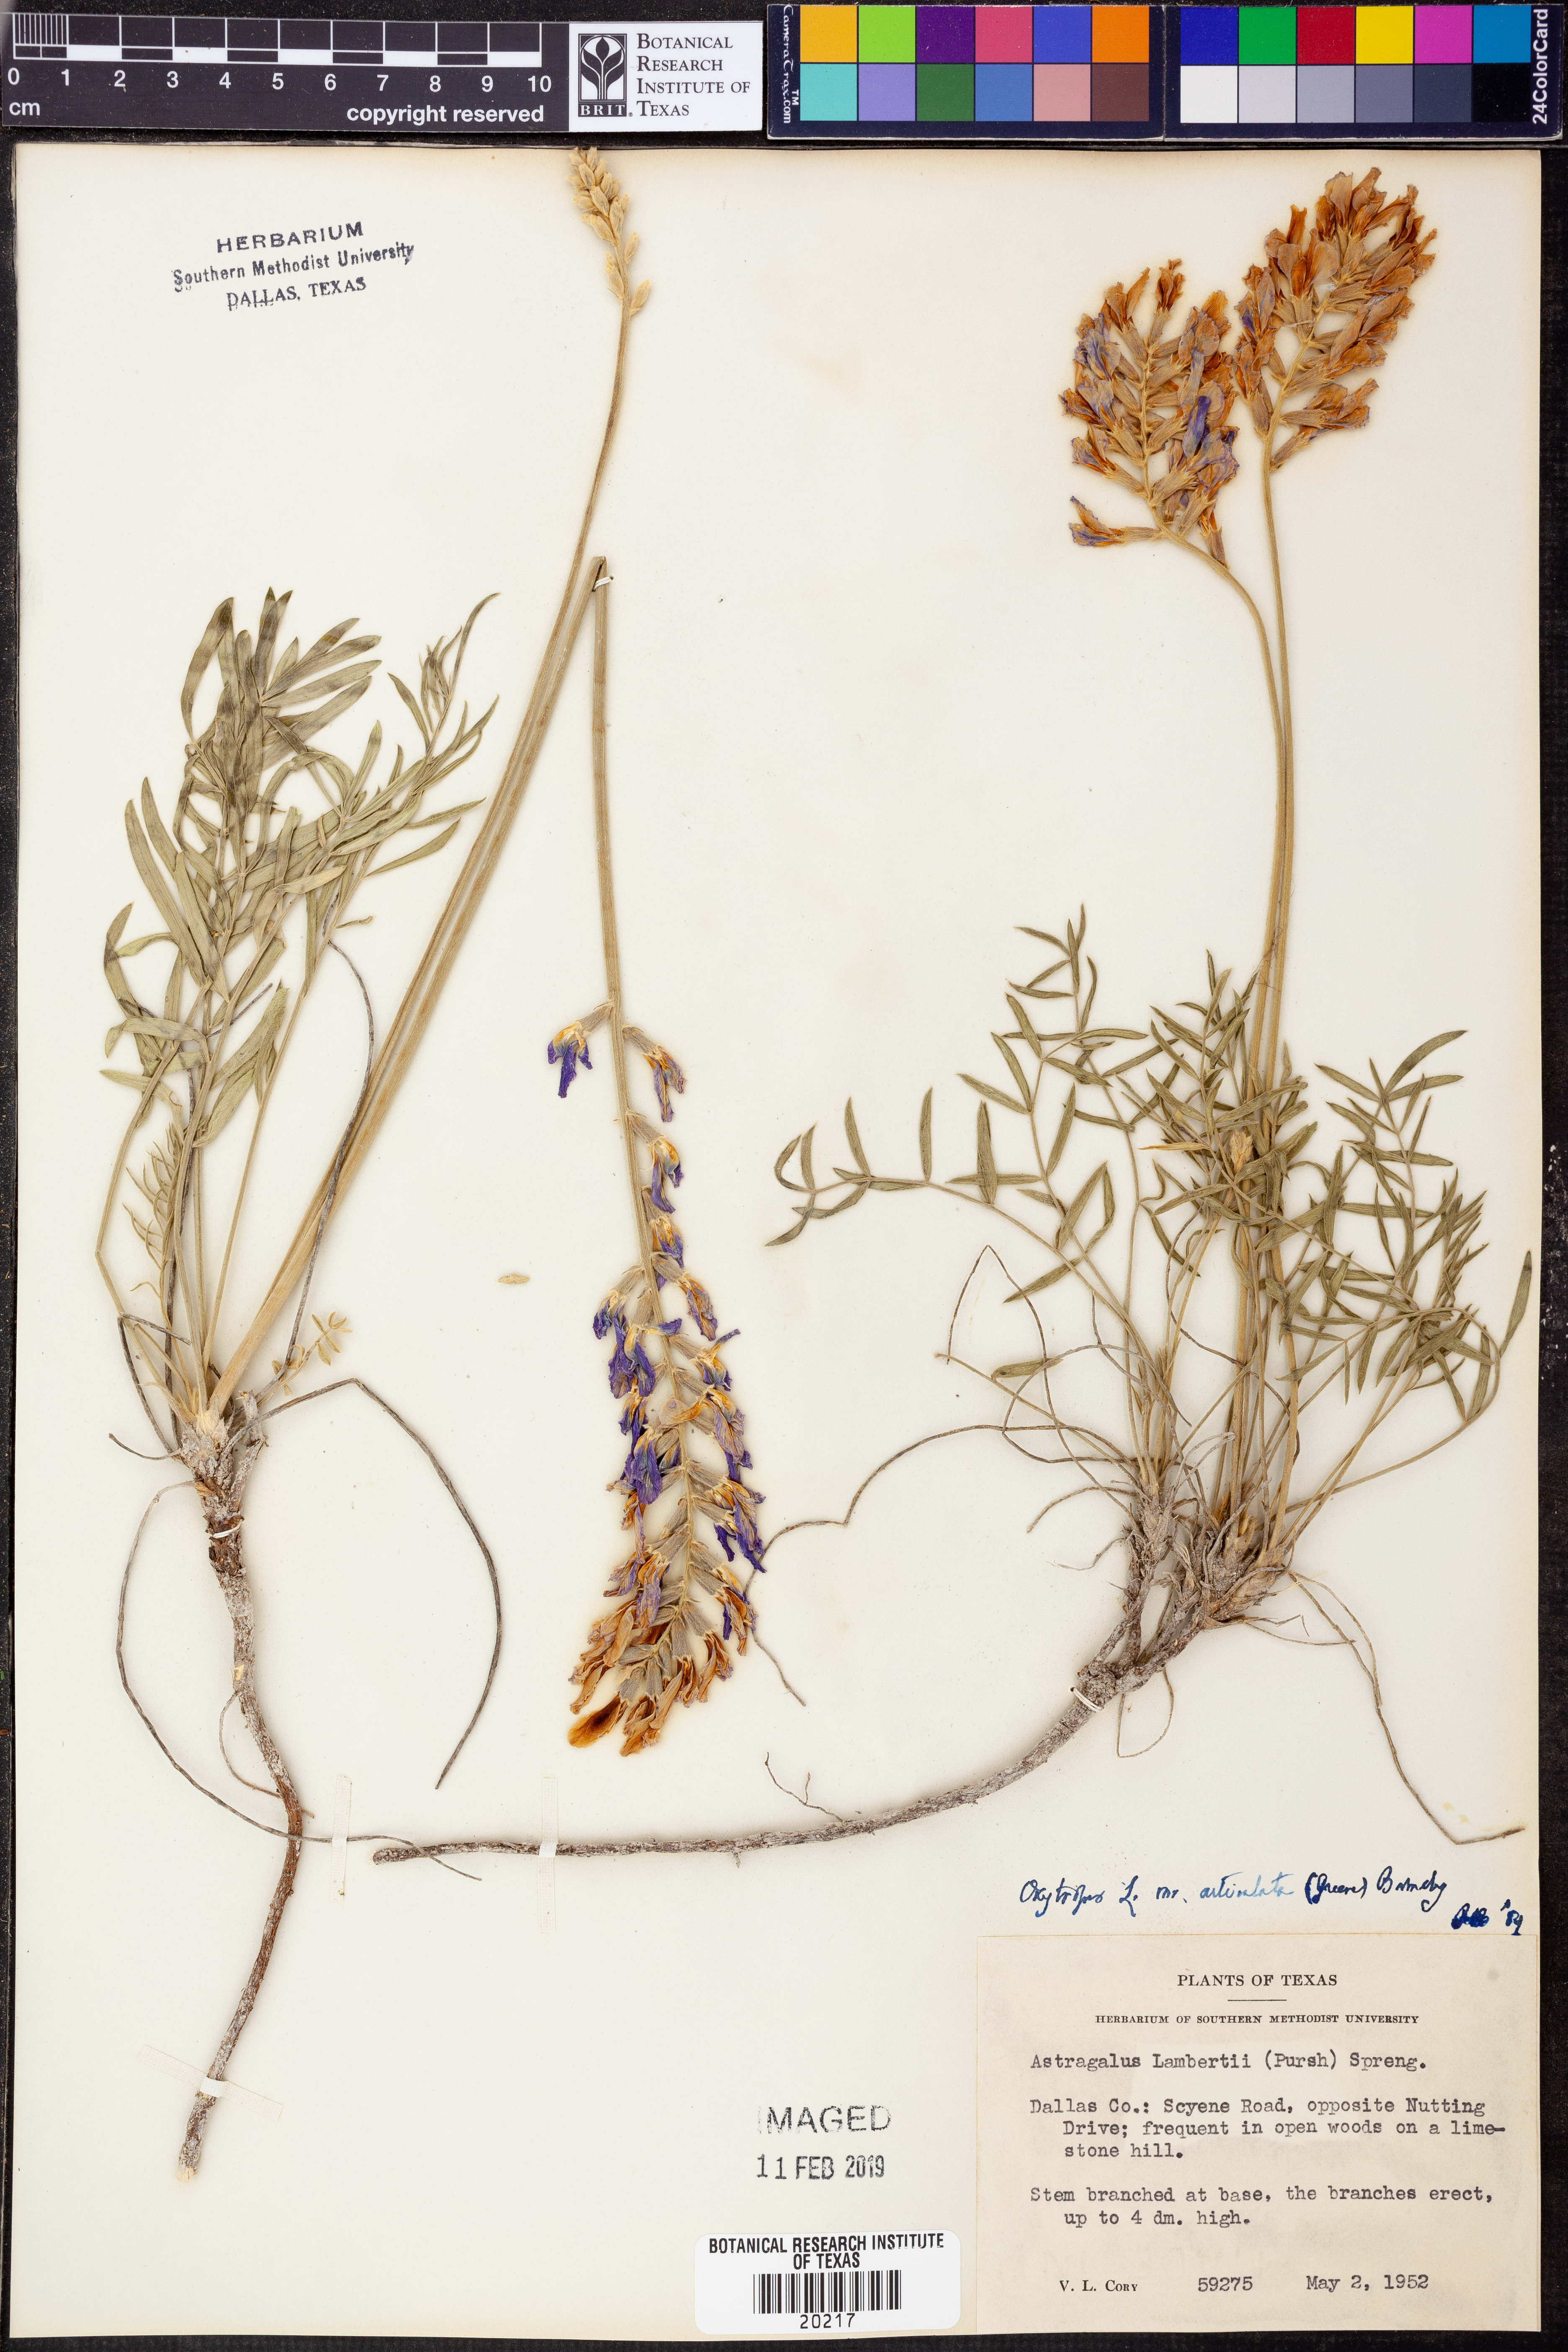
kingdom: Plantae
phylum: Tracheophyta
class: Magnoliopsida
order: Fabales
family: Fabaceae
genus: Oxytropis
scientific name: Oxytropis lambertii
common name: Purple locoweed
